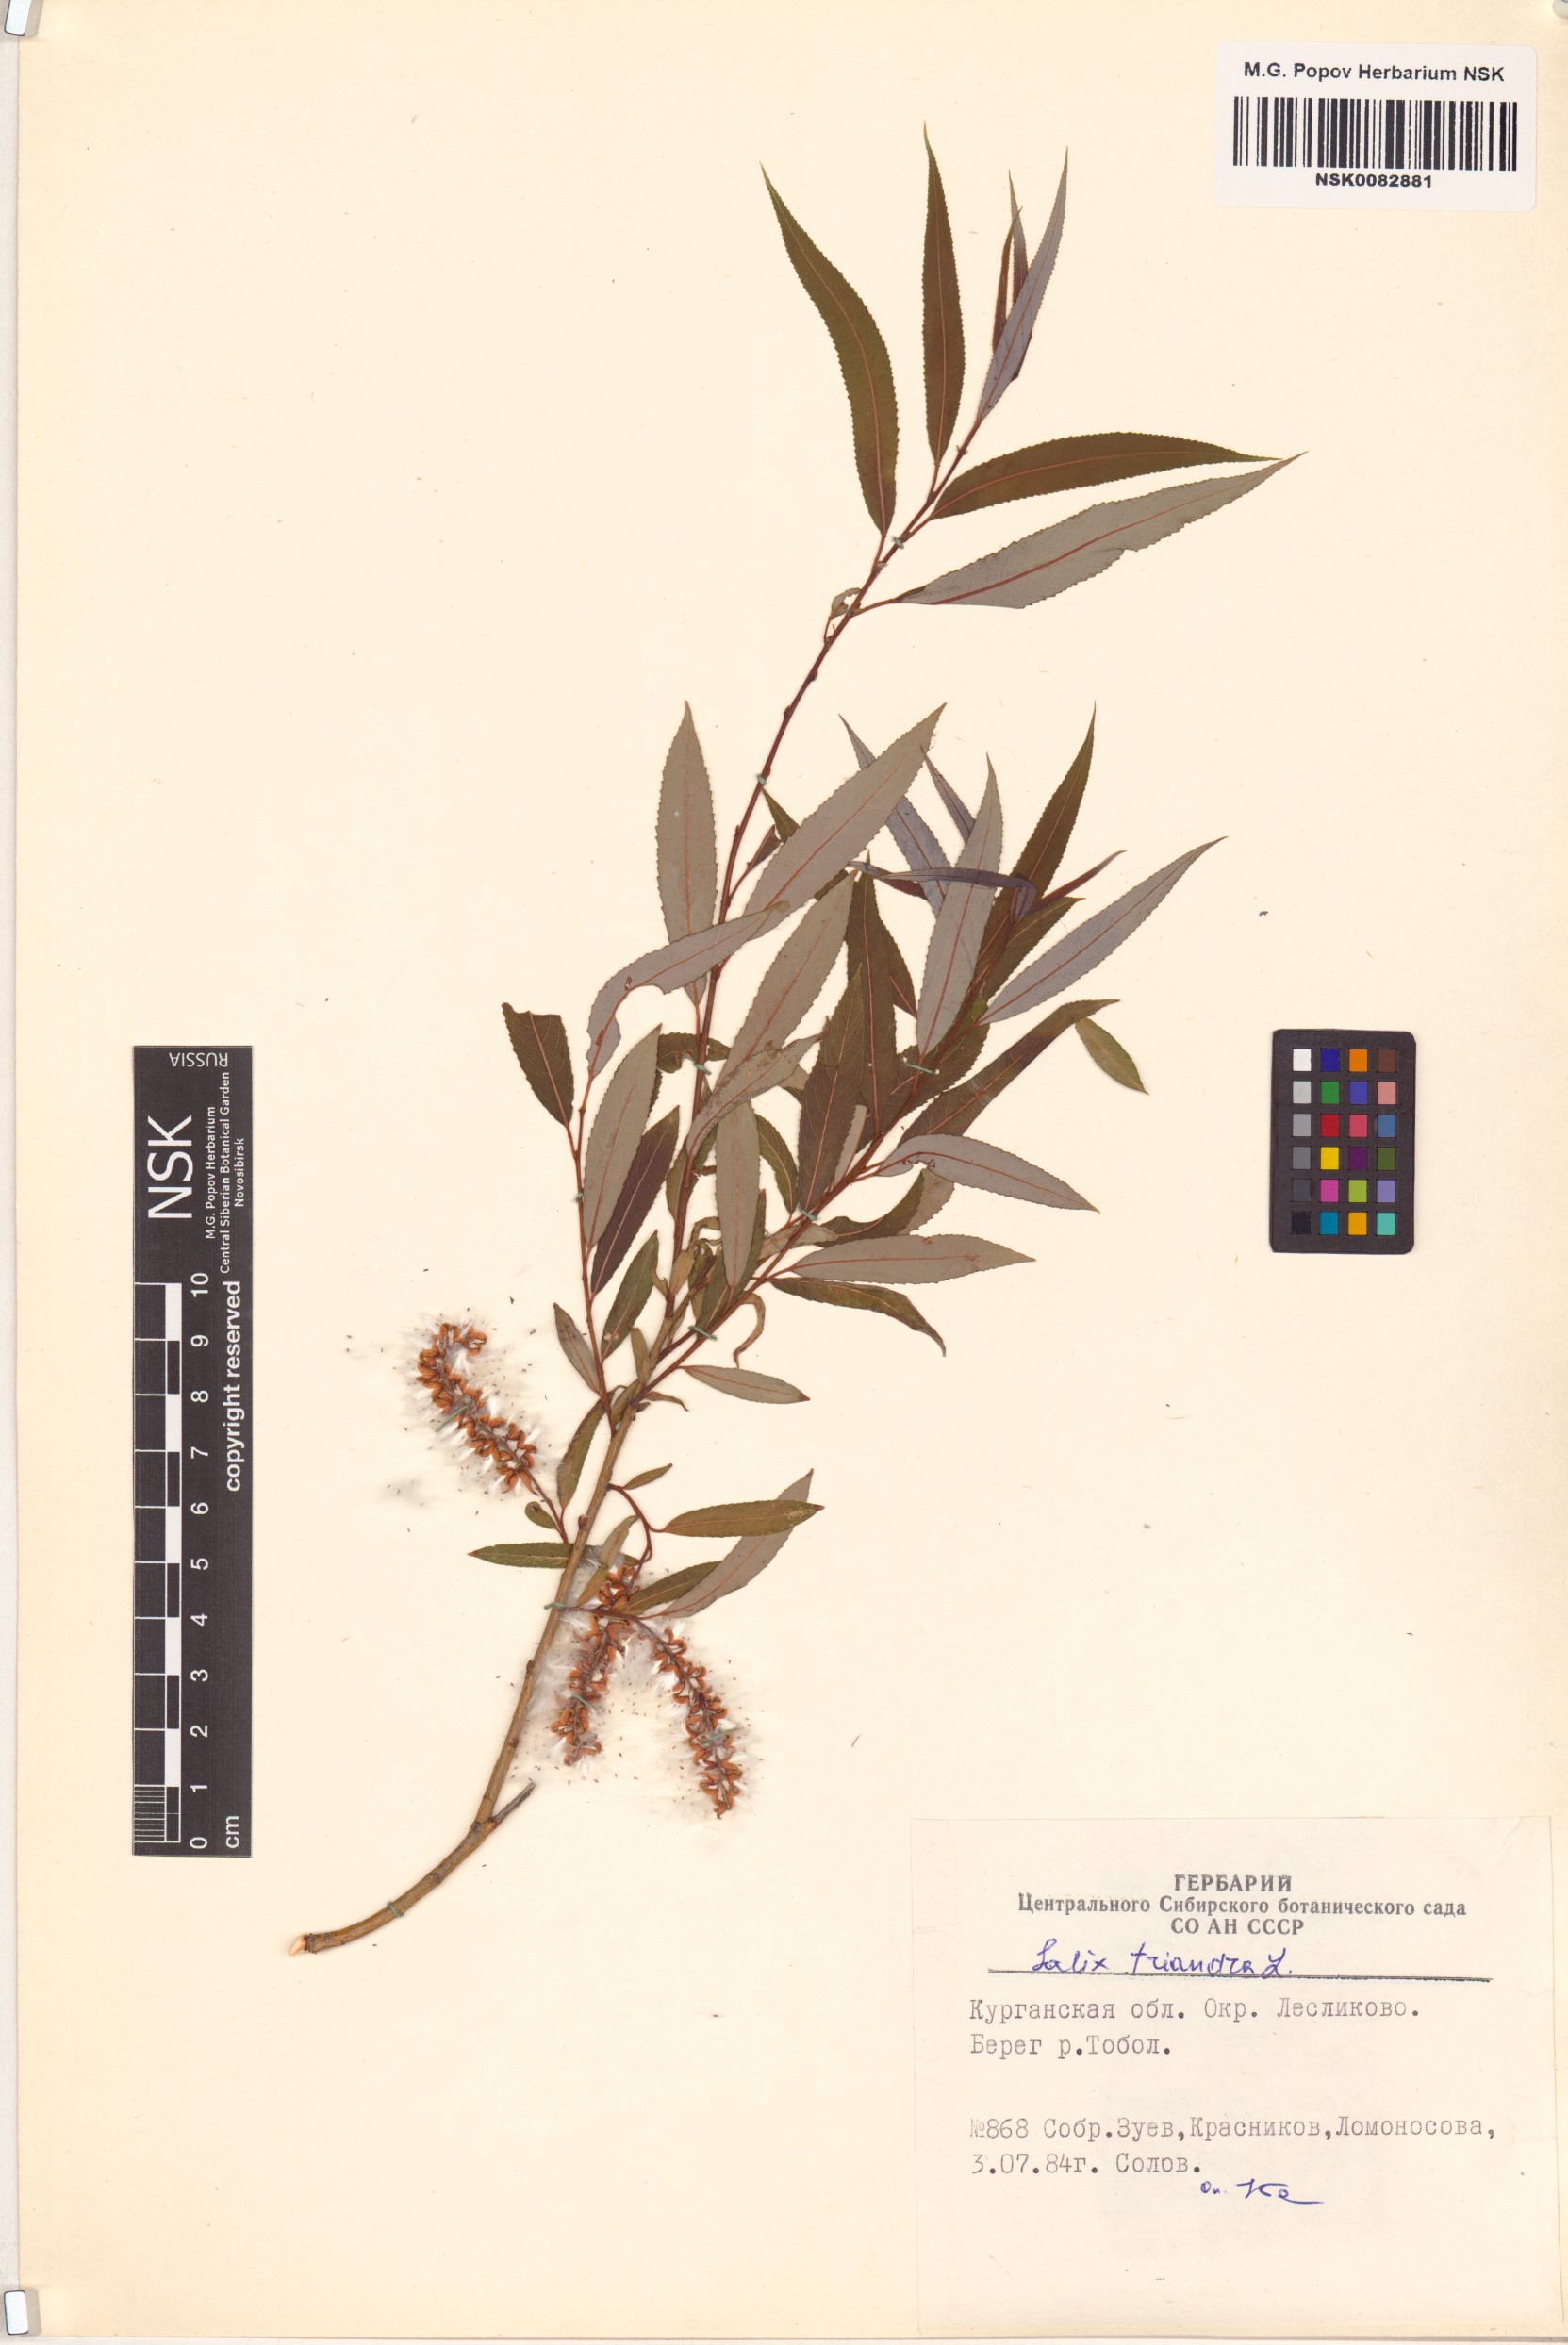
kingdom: Plantae
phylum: Tracheophyta
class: Magnoliopsida
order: Malpighiales
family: Salicaceae
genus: Salix
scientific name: Salix triandra
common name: Almond willow
